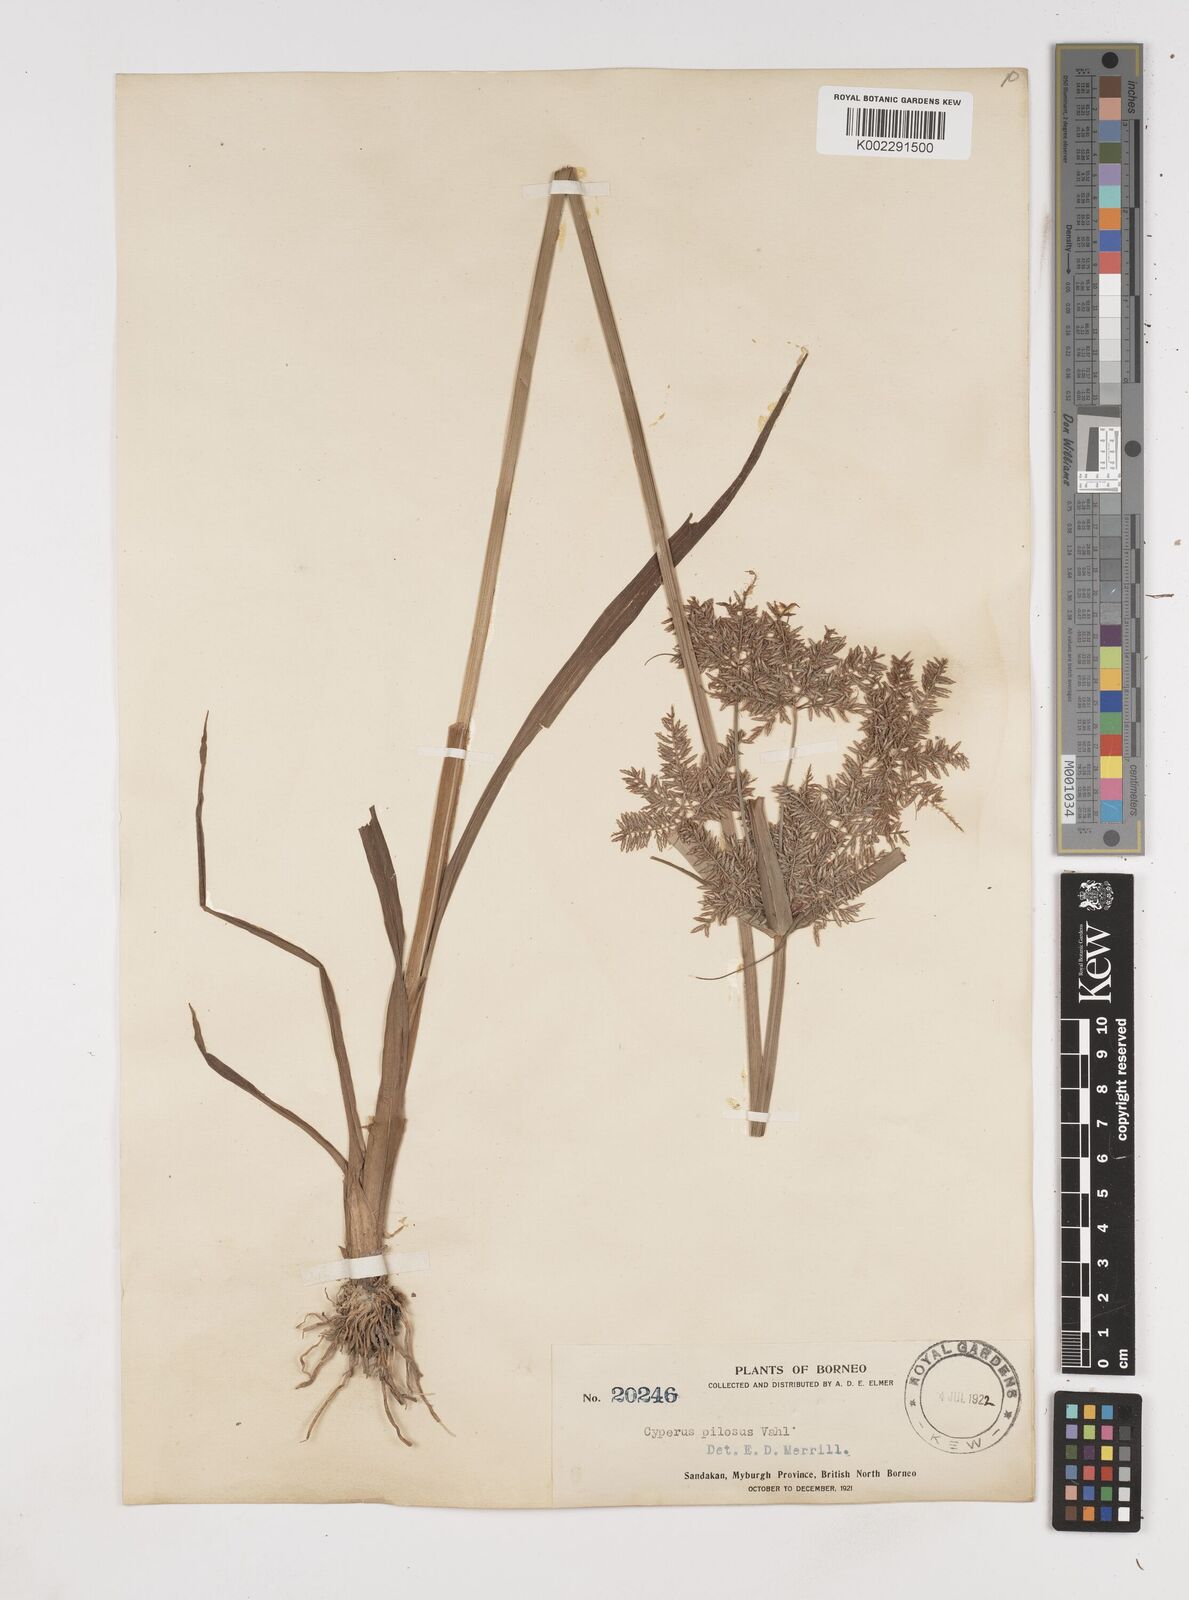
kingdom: Plantae
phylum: Tracheophyta
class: Liliopsida
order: Poales
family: Cyperaceae
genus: Cyperus
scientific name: Cyperus pilosus
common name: Fuzzy flatsedge
